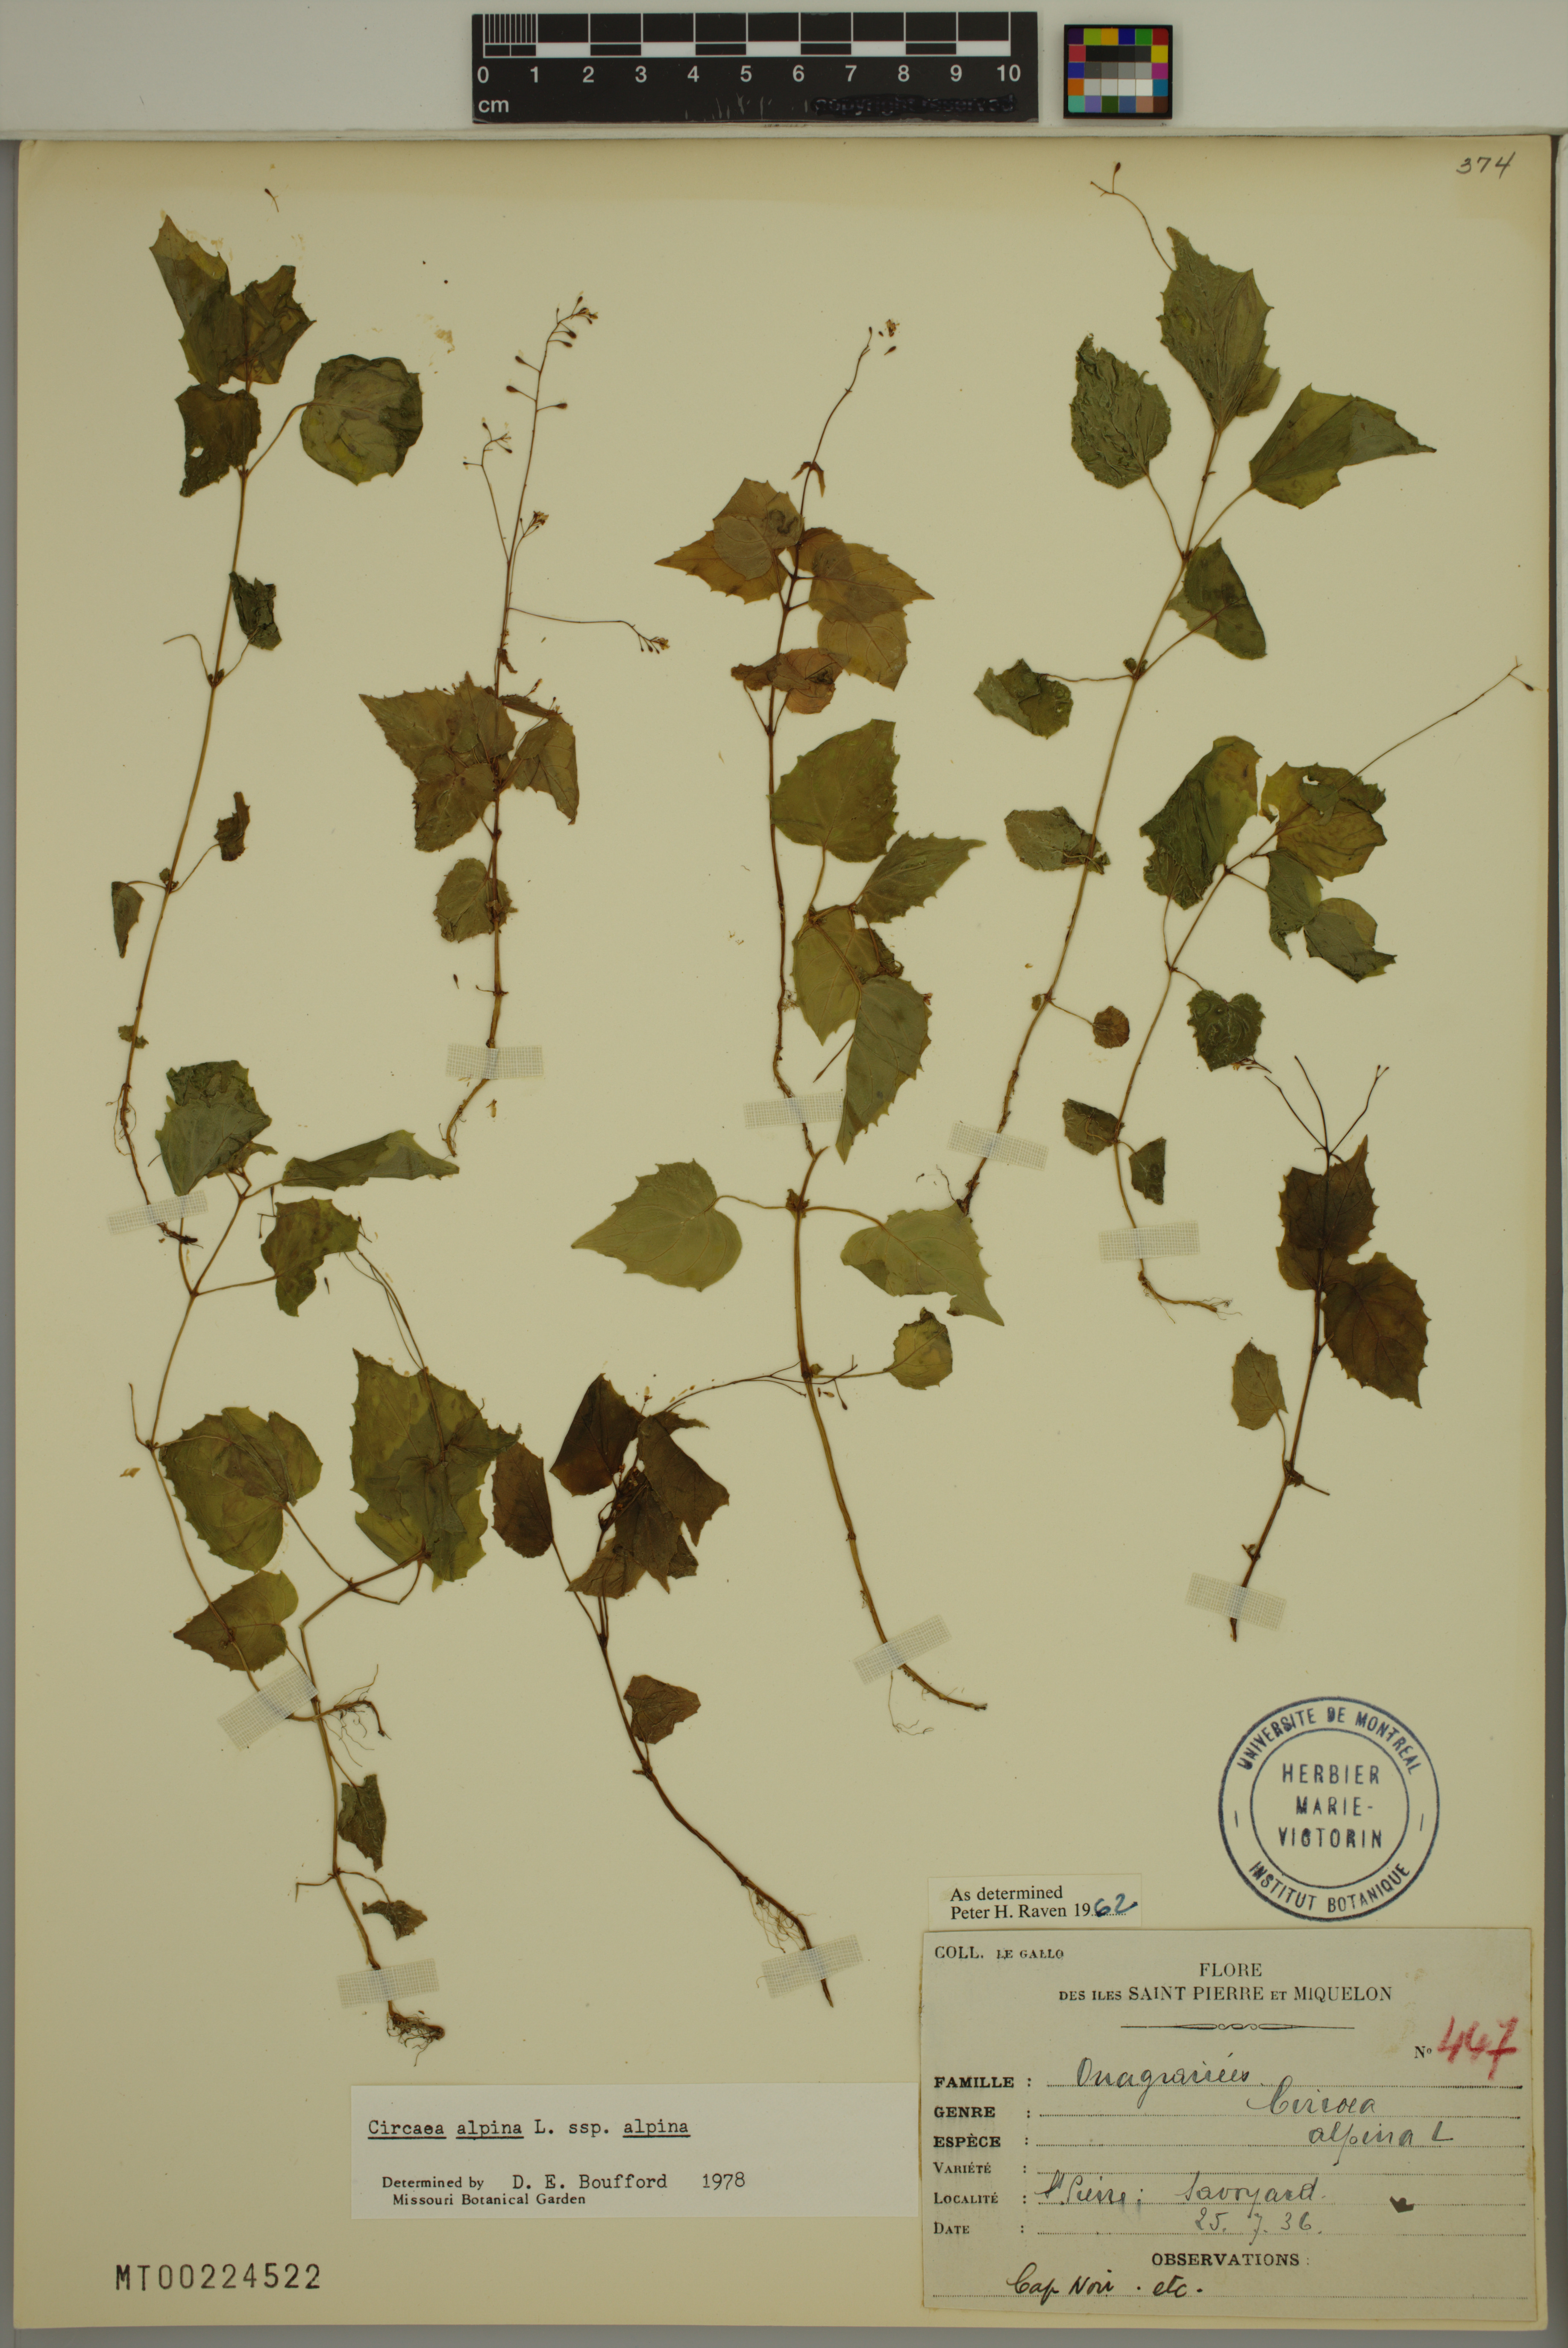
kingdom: Plantae
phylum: Tracheophyta
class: Magnoliopsida
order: Myrtales
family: Onagraceae
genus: Circaea
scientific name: Circaea alpina
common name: Alpine enchanter's-nightshade
